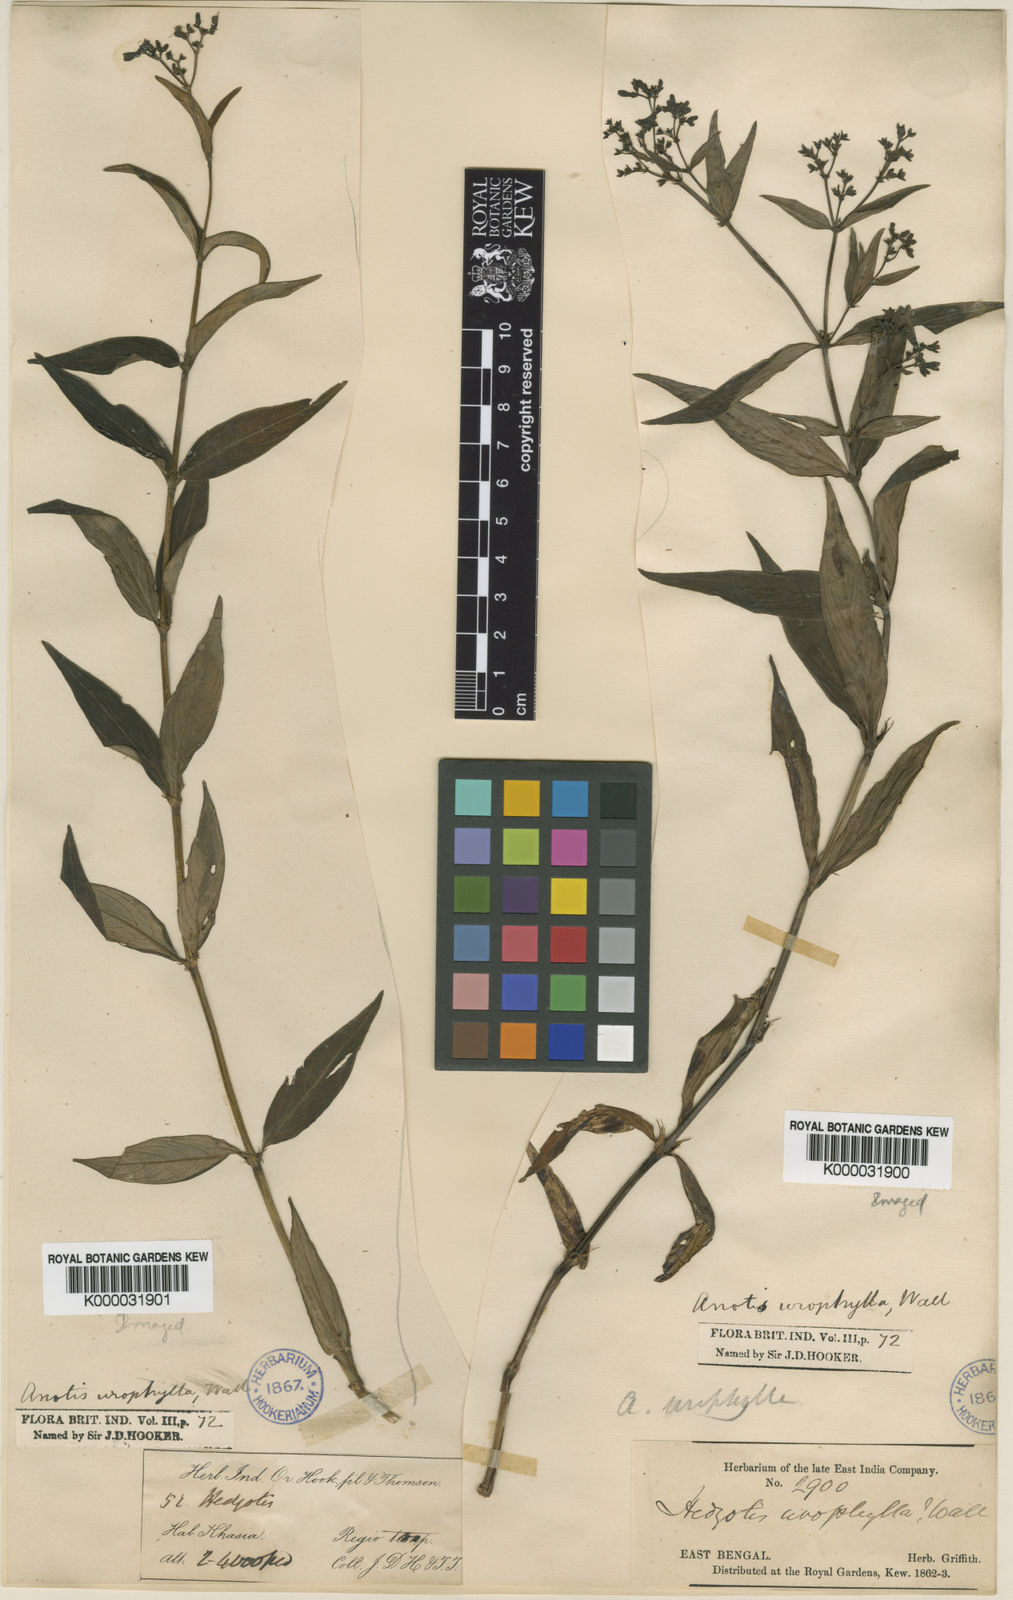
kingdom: Plantae
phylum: Tracheophyta
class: Magnoliopsida
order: Gentianales
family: Rubiaceae
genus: Neanotis
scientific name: Neanotis decipiens
